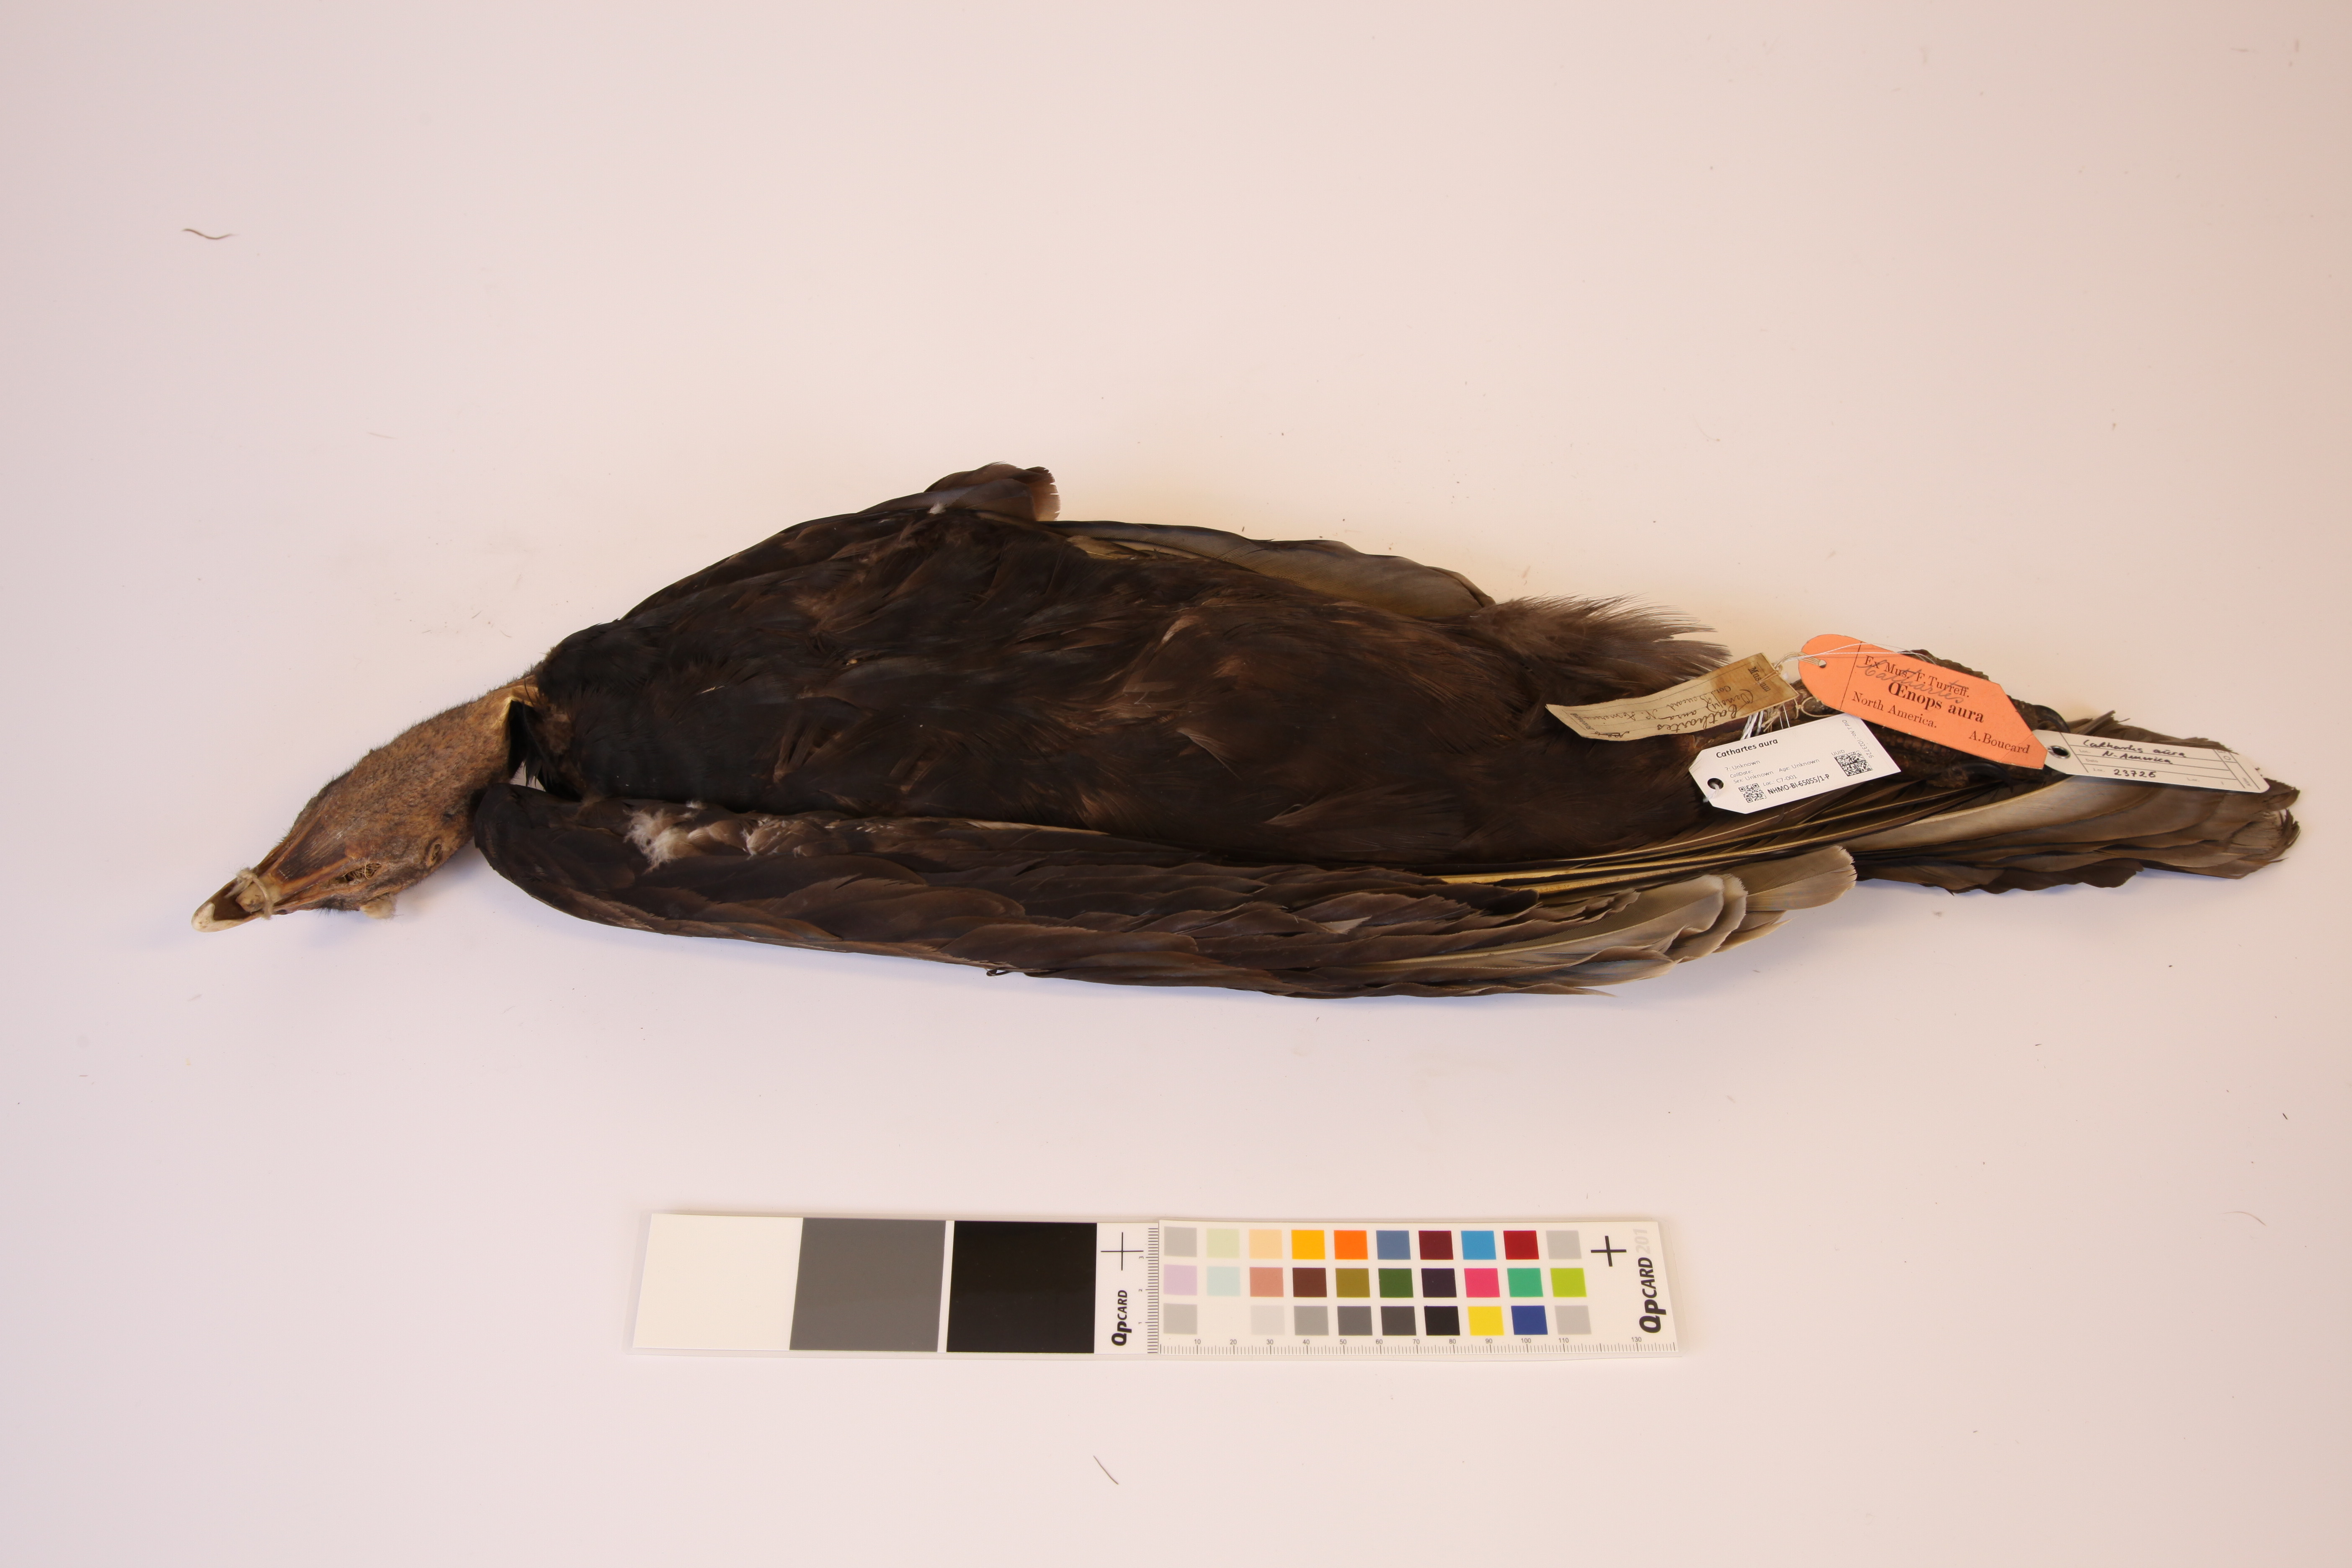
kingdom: Animalia
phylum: Chordata
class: Aves
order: Accipitriformes
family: Cathartidae
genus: Cathartes
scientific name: Cathartes aura
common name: Turkey vulture
